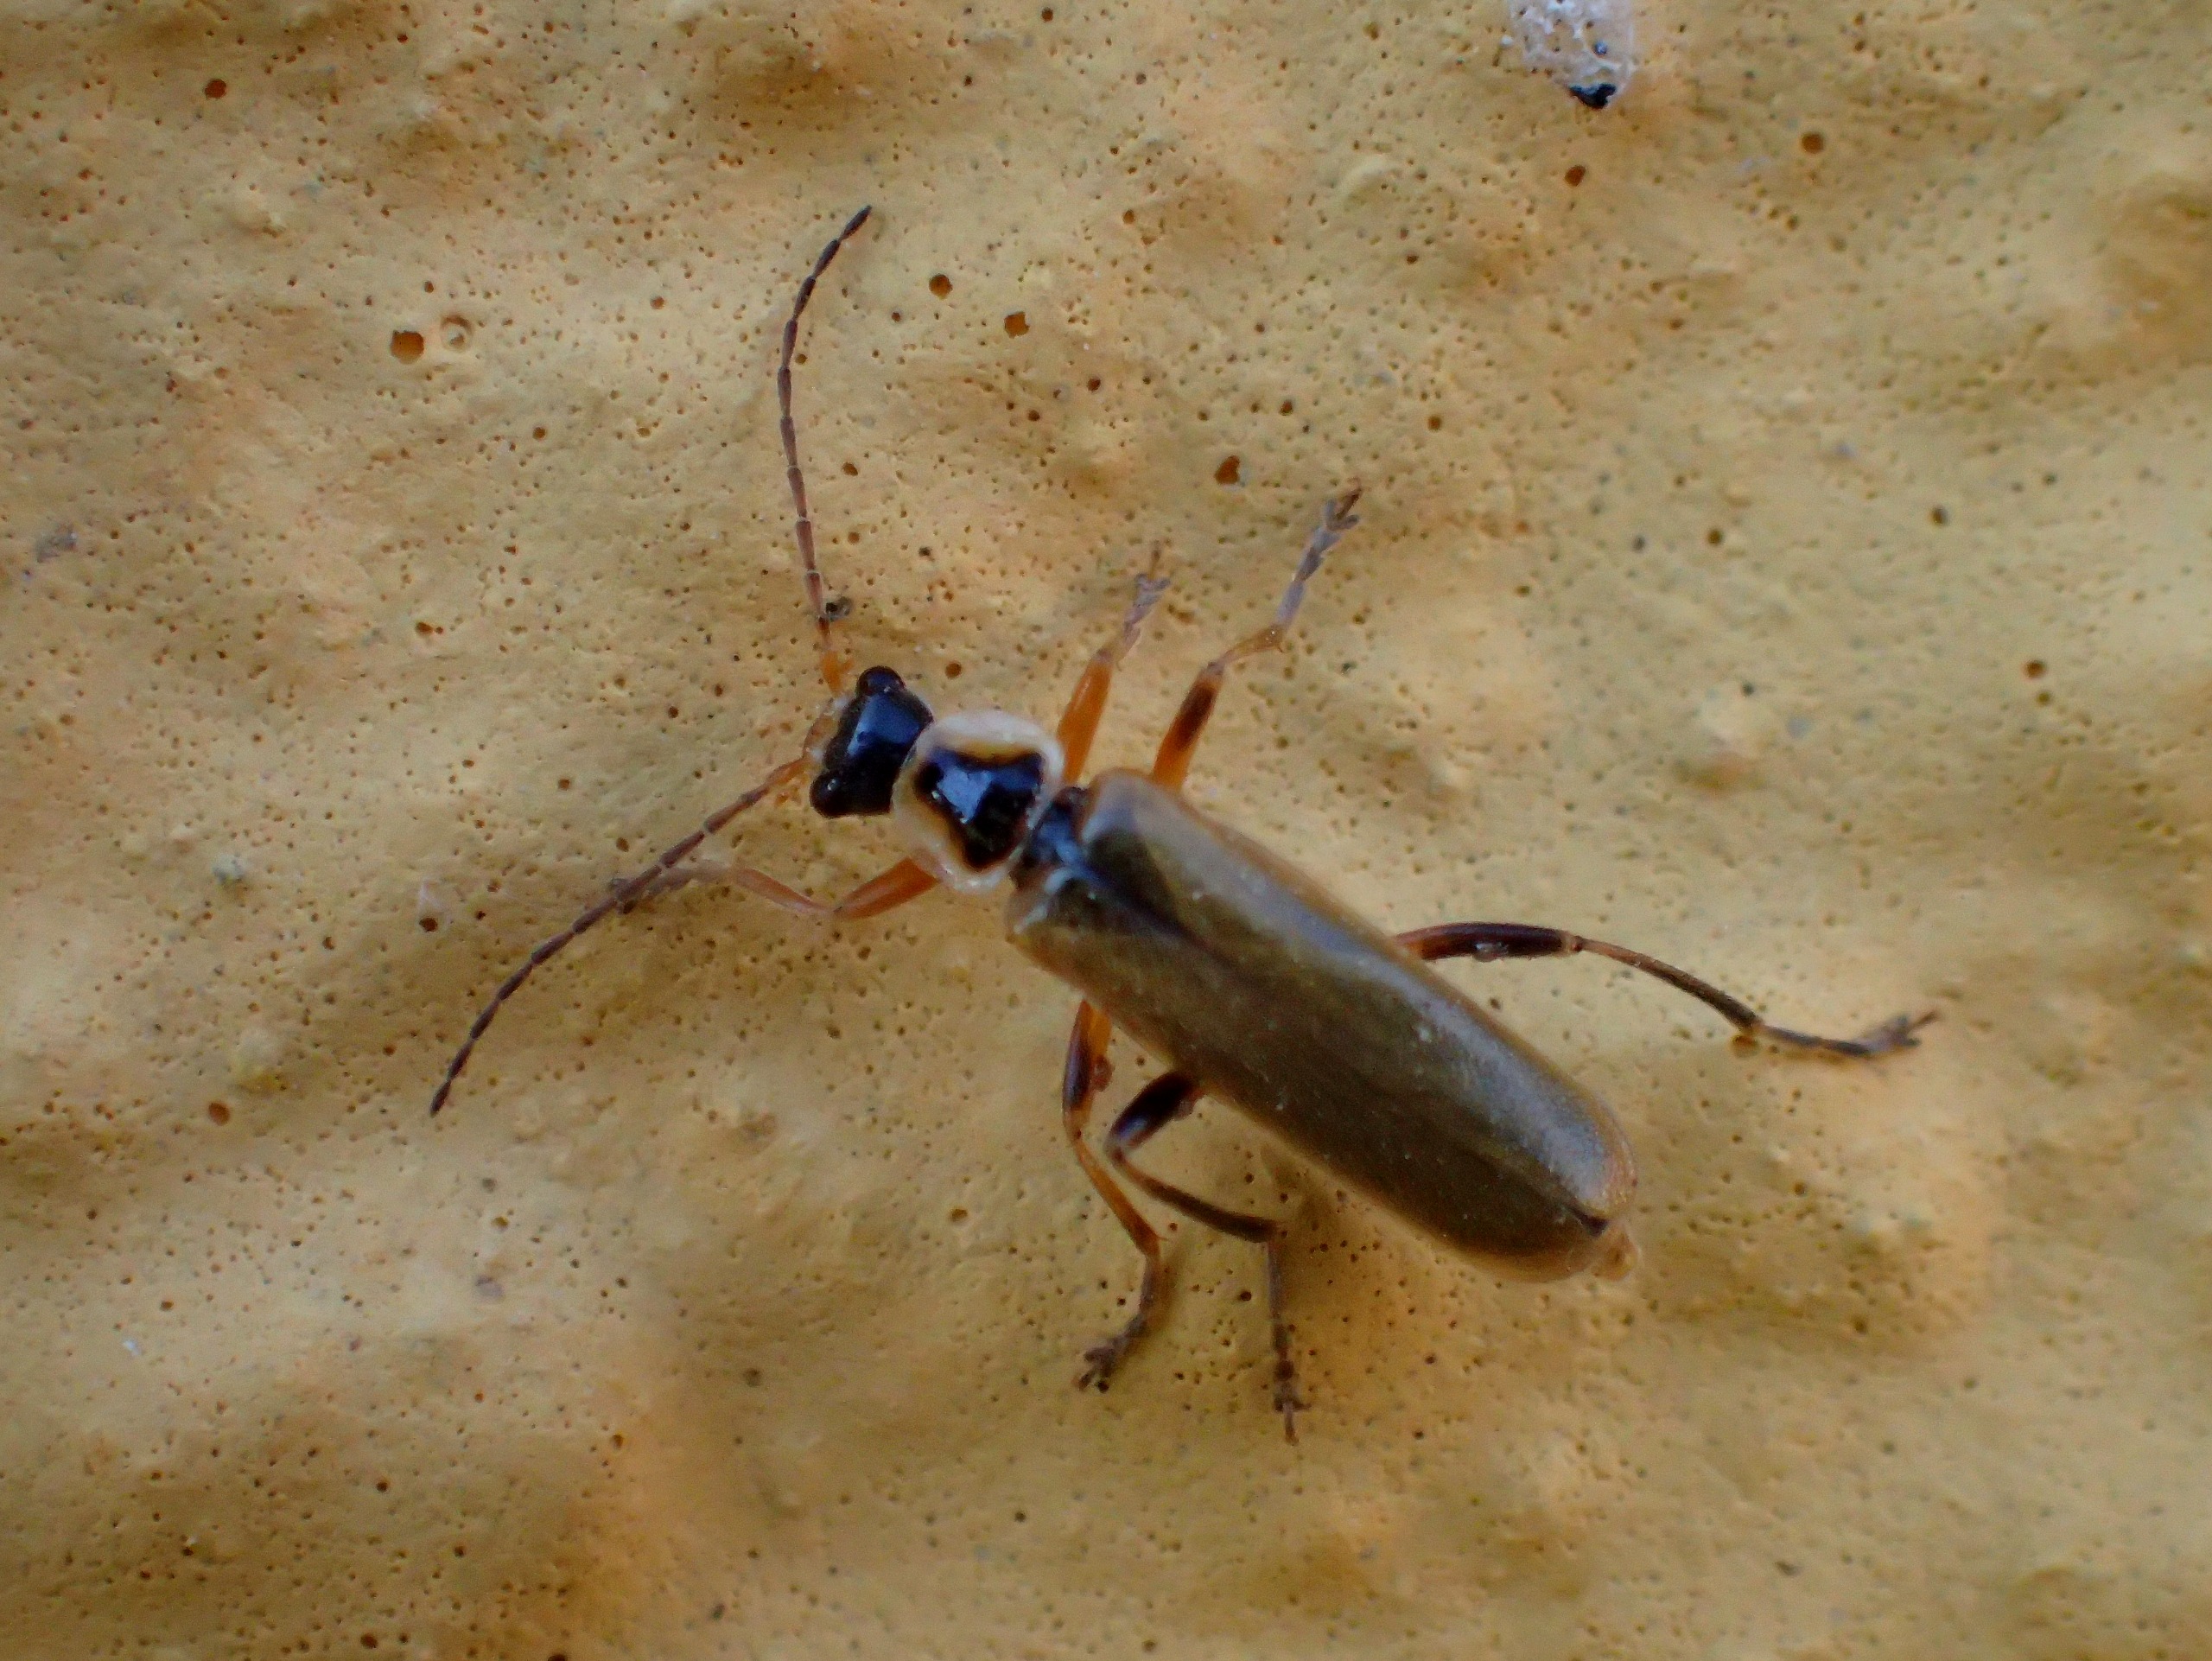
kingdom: Animalia
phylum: Arthropoda
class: Insecta
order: Coleoptera
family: Cantharidae
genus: Cantharis
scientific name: Cantharis decipiens
